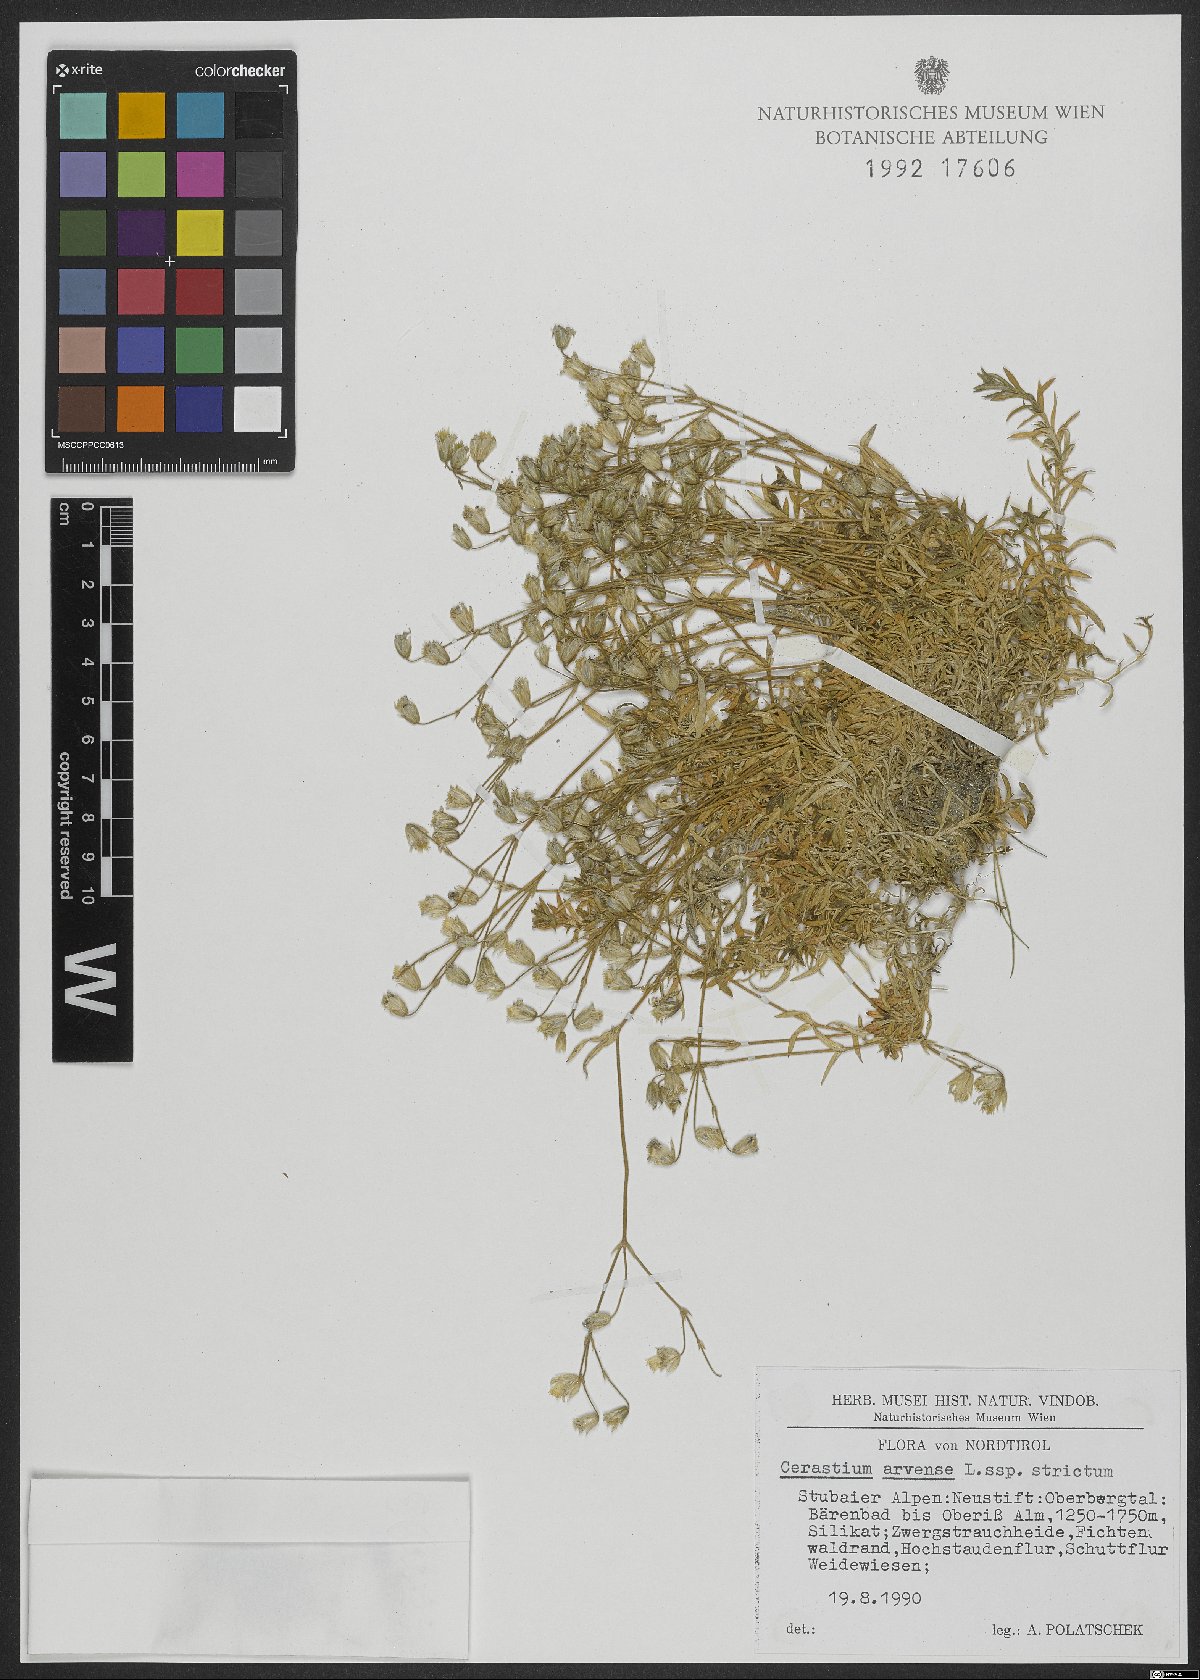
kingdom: Plantae
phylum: Tracheophyta
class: Magnoliopsida
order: Caryophyllales
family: Caryophyllaceae
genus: Cerastium
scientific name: Cerastium elongatum
